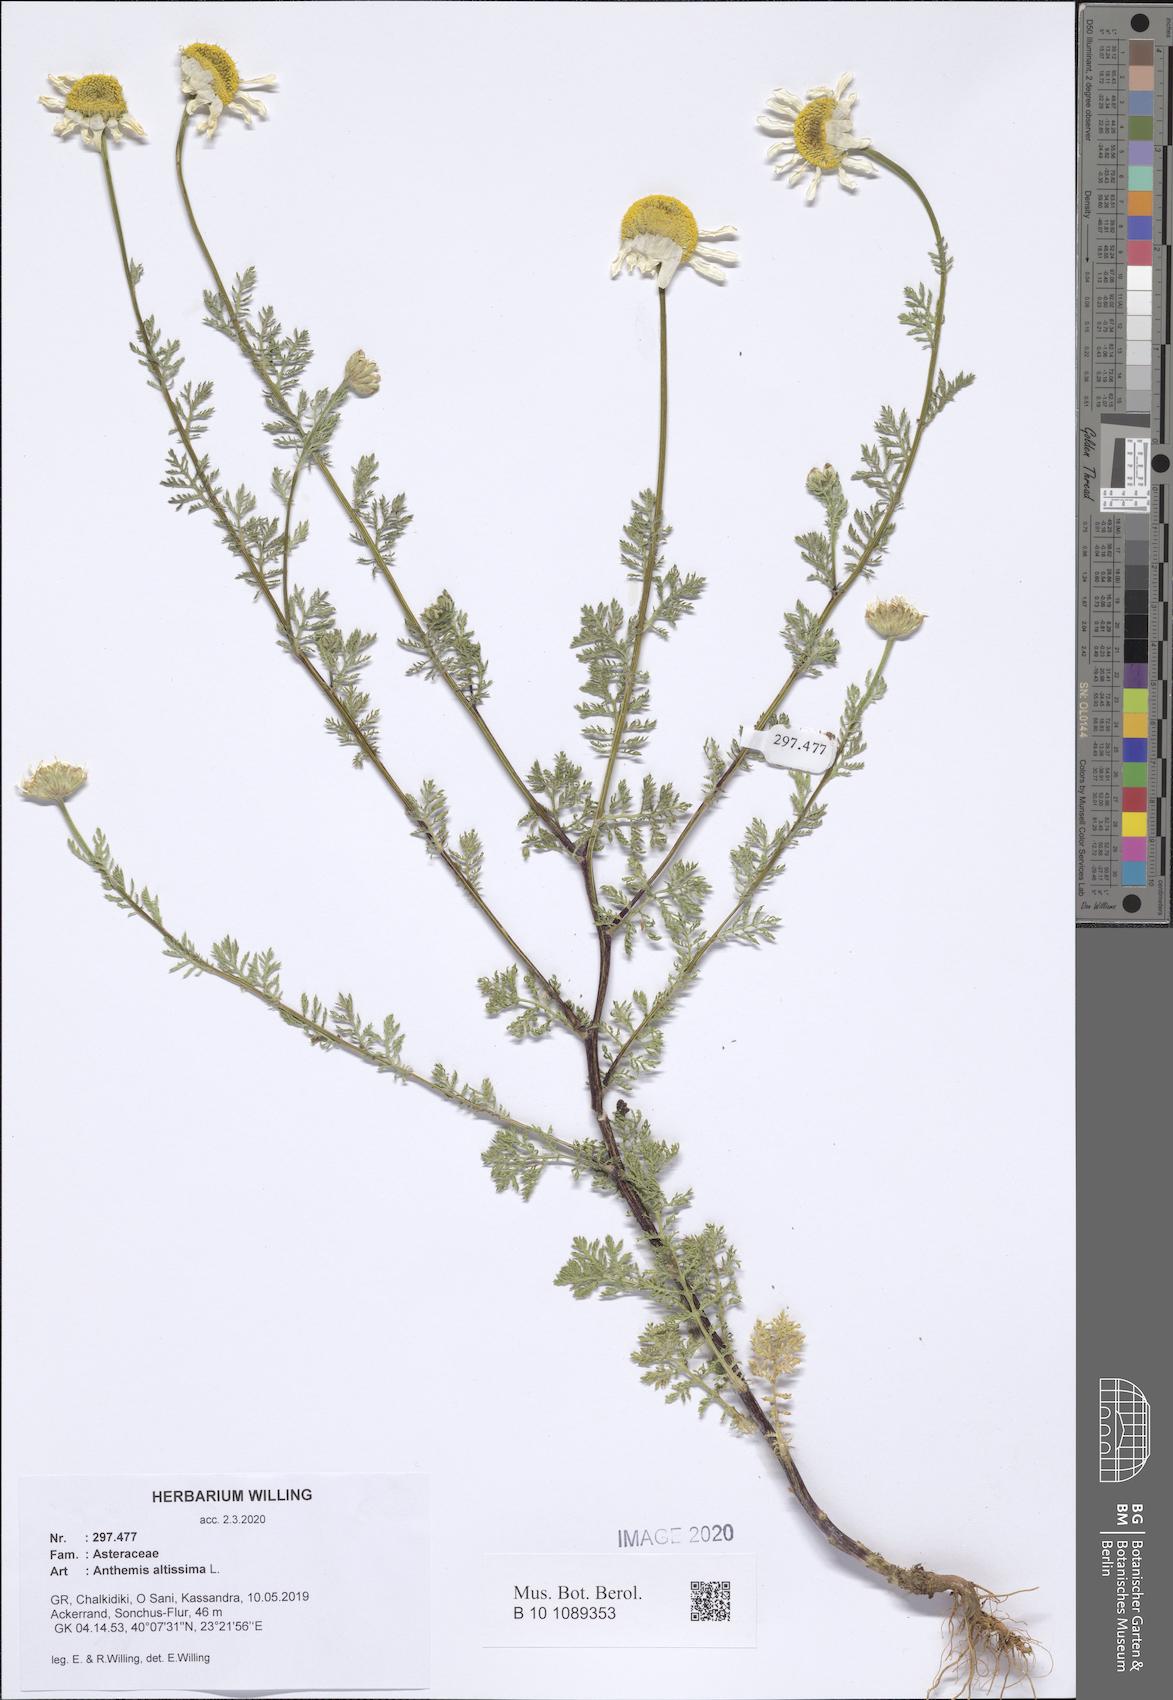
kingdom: Plantae
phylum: Tracheophyta
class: Magnoliopsida
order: Asterales
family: Asteraceae
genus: Cota
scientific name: Cota altissima
